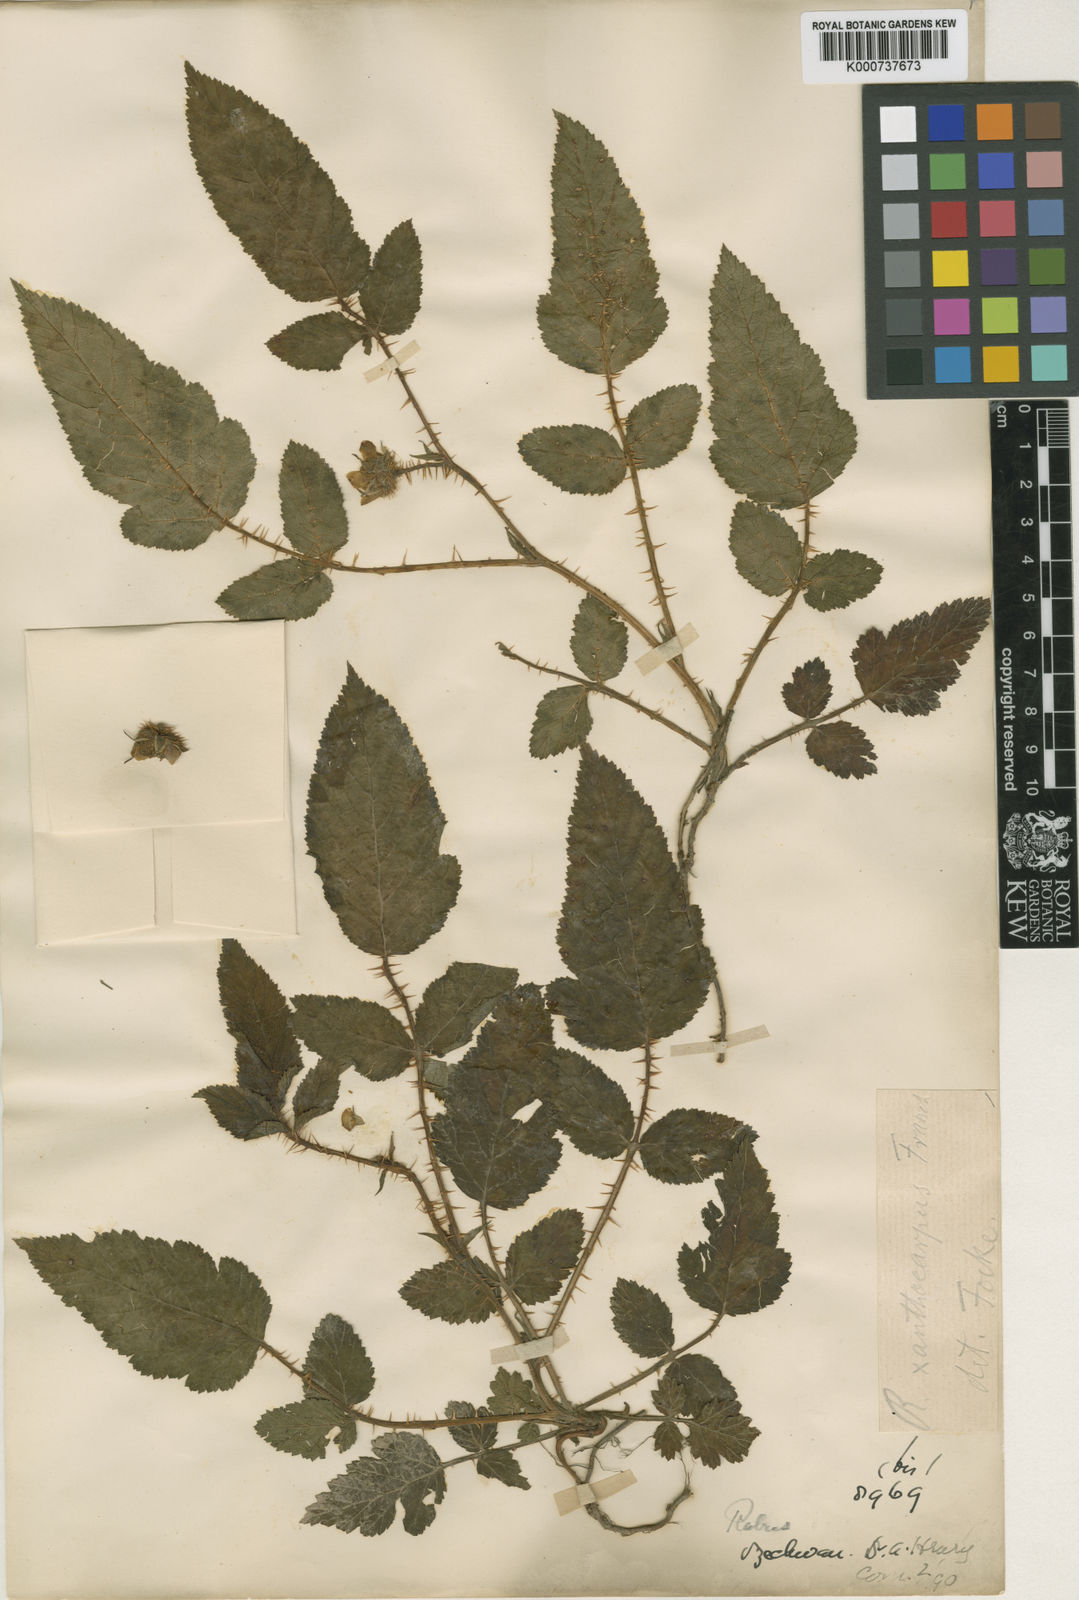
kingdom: Plantae
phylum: Tracheophyta
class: Magnoliopsida
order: Rosales
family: Rosaceae
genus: Rubus
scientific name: Rubus xanthocarpus
